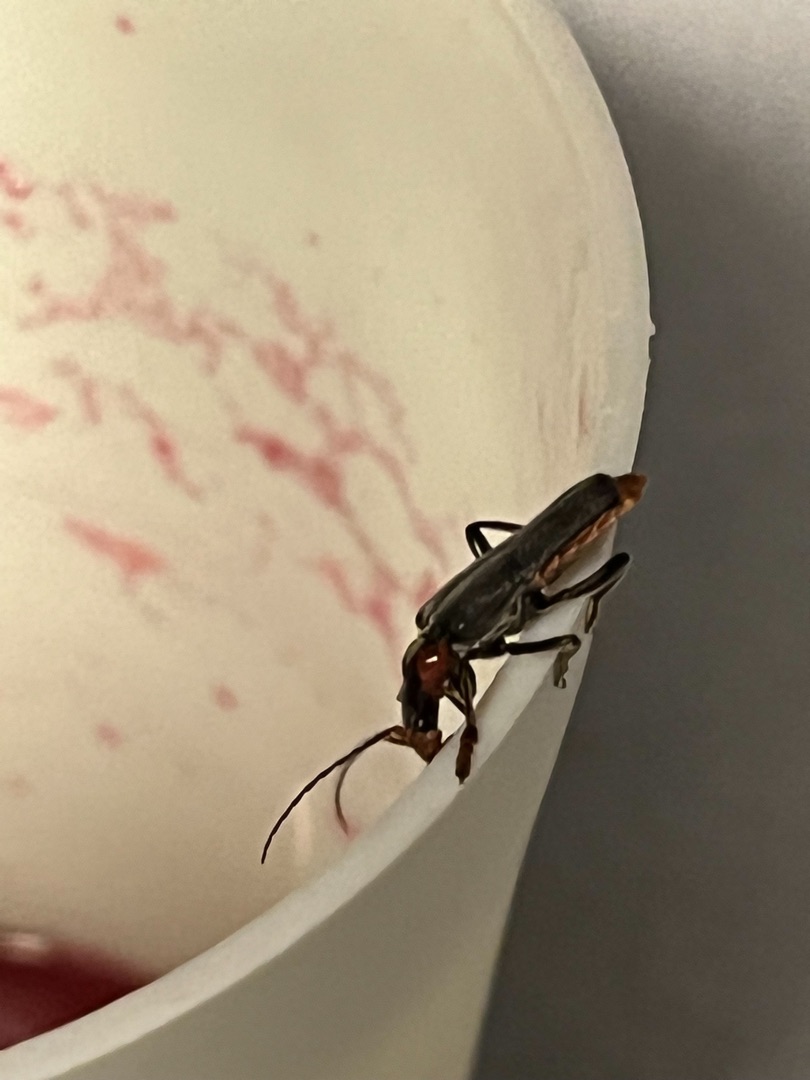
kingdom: Animalia
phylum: Arthropoda
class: Insecta
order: Coleoptera
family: Cantharidae
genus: Cantharis
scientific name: Cantharis fusca
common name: Stor blødvinge
